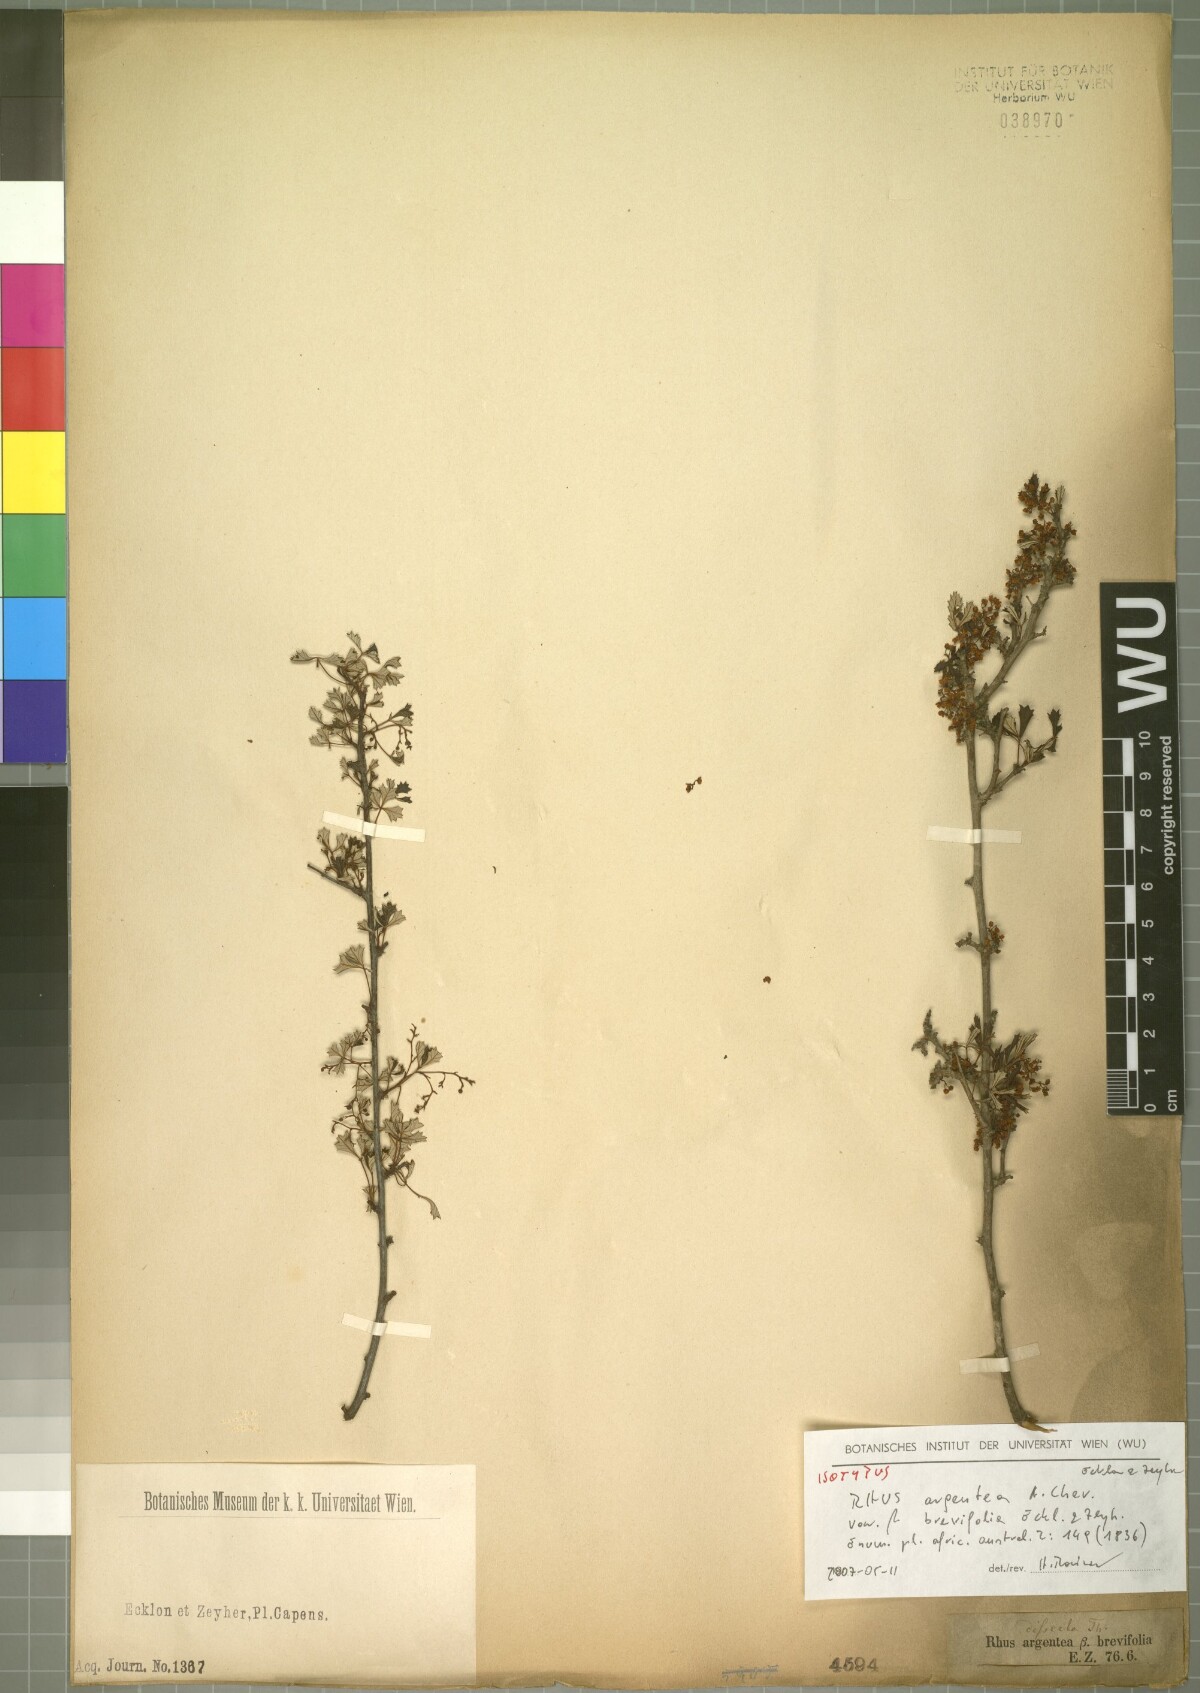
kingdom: Plantae
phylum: Tracheophyta
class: Magnoliopsida
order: Sapindales
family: Anacardiaceae
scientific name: Anacardiaceae
